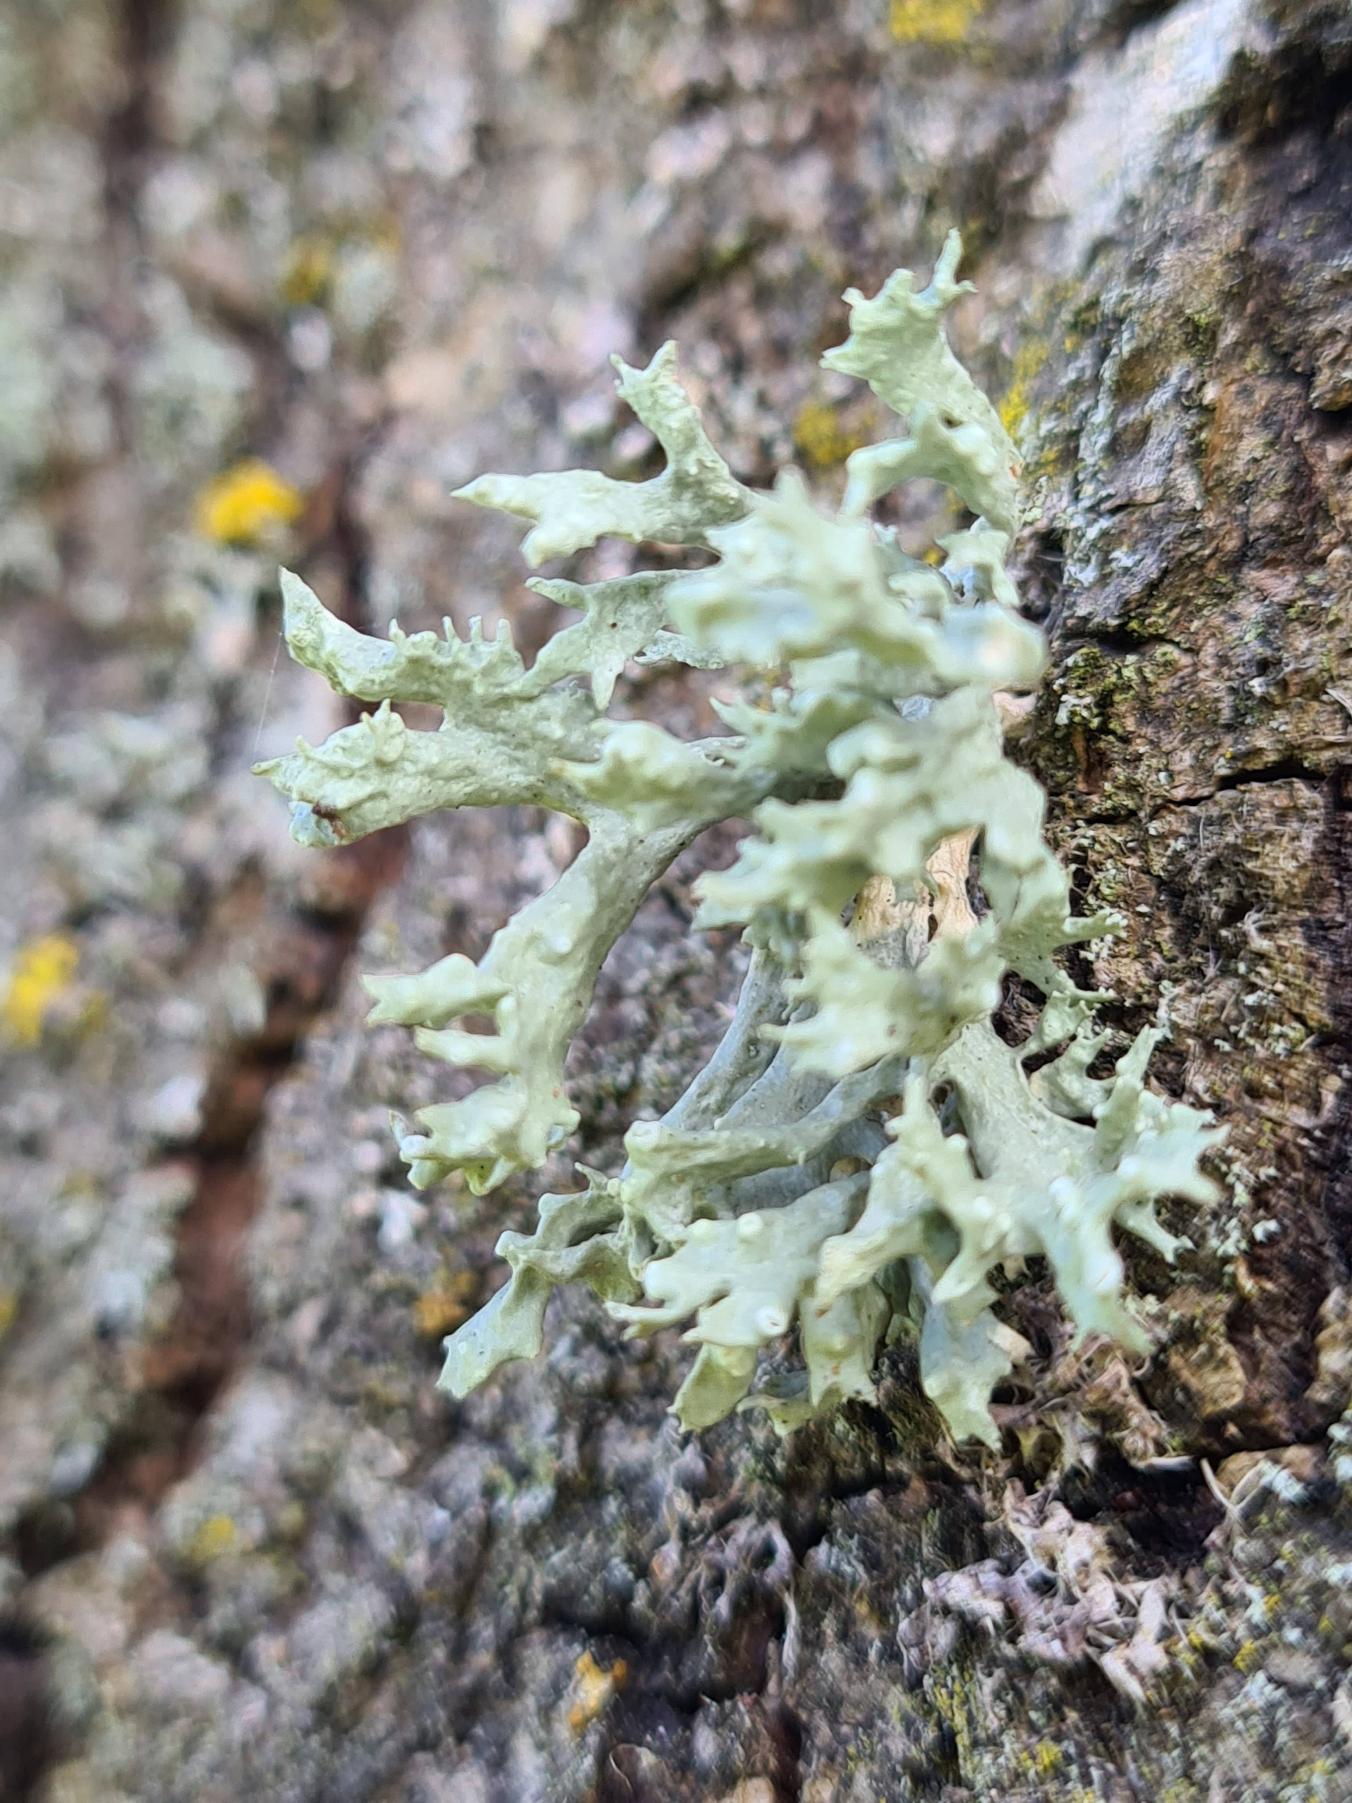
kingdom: Fungi
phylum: Ascomycota
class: Lecanoromycetes
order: Lecanorales
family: Ramalinaceae
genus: Ramalina
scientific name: Ramalina fastigiata
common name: Tue-grenlav
